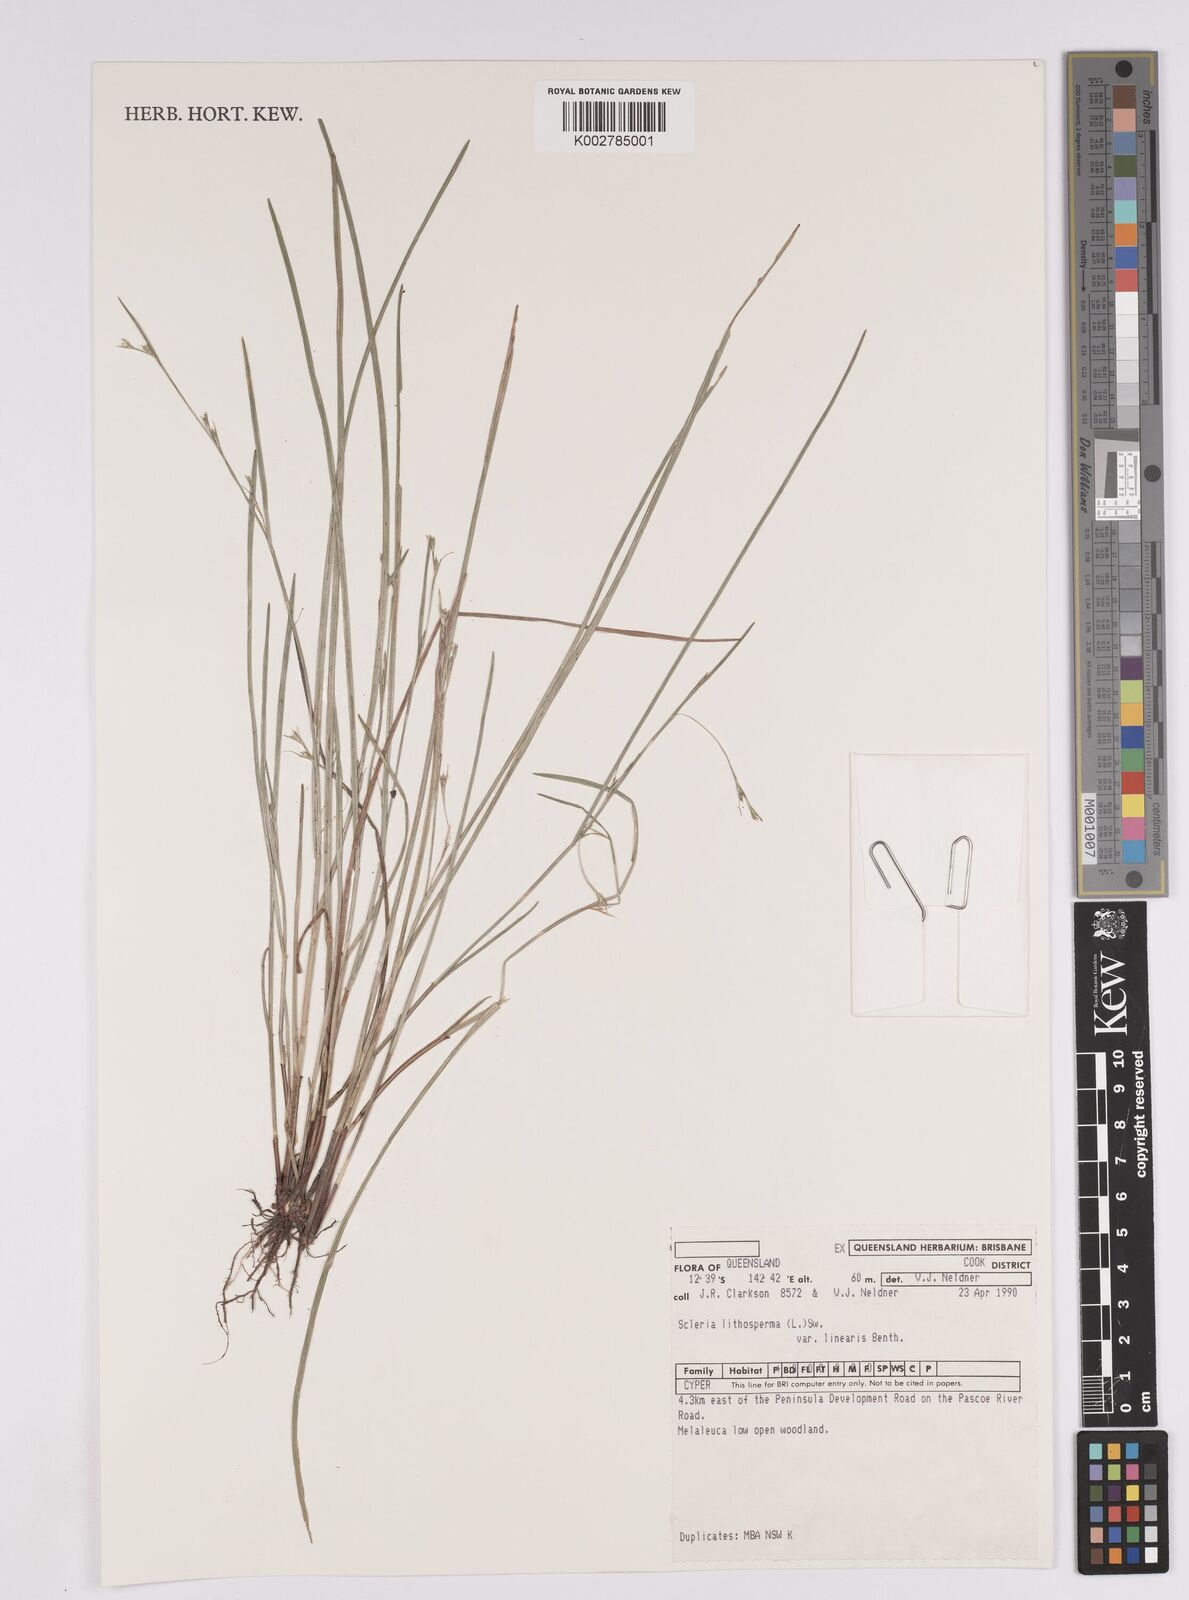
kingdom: Plantae
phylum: Tracheophyta
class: Liliopsida
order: Poales
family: Cyperaceae
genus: Scleria
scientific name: Scleria lithosperma
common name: Florida keys nut-rush
